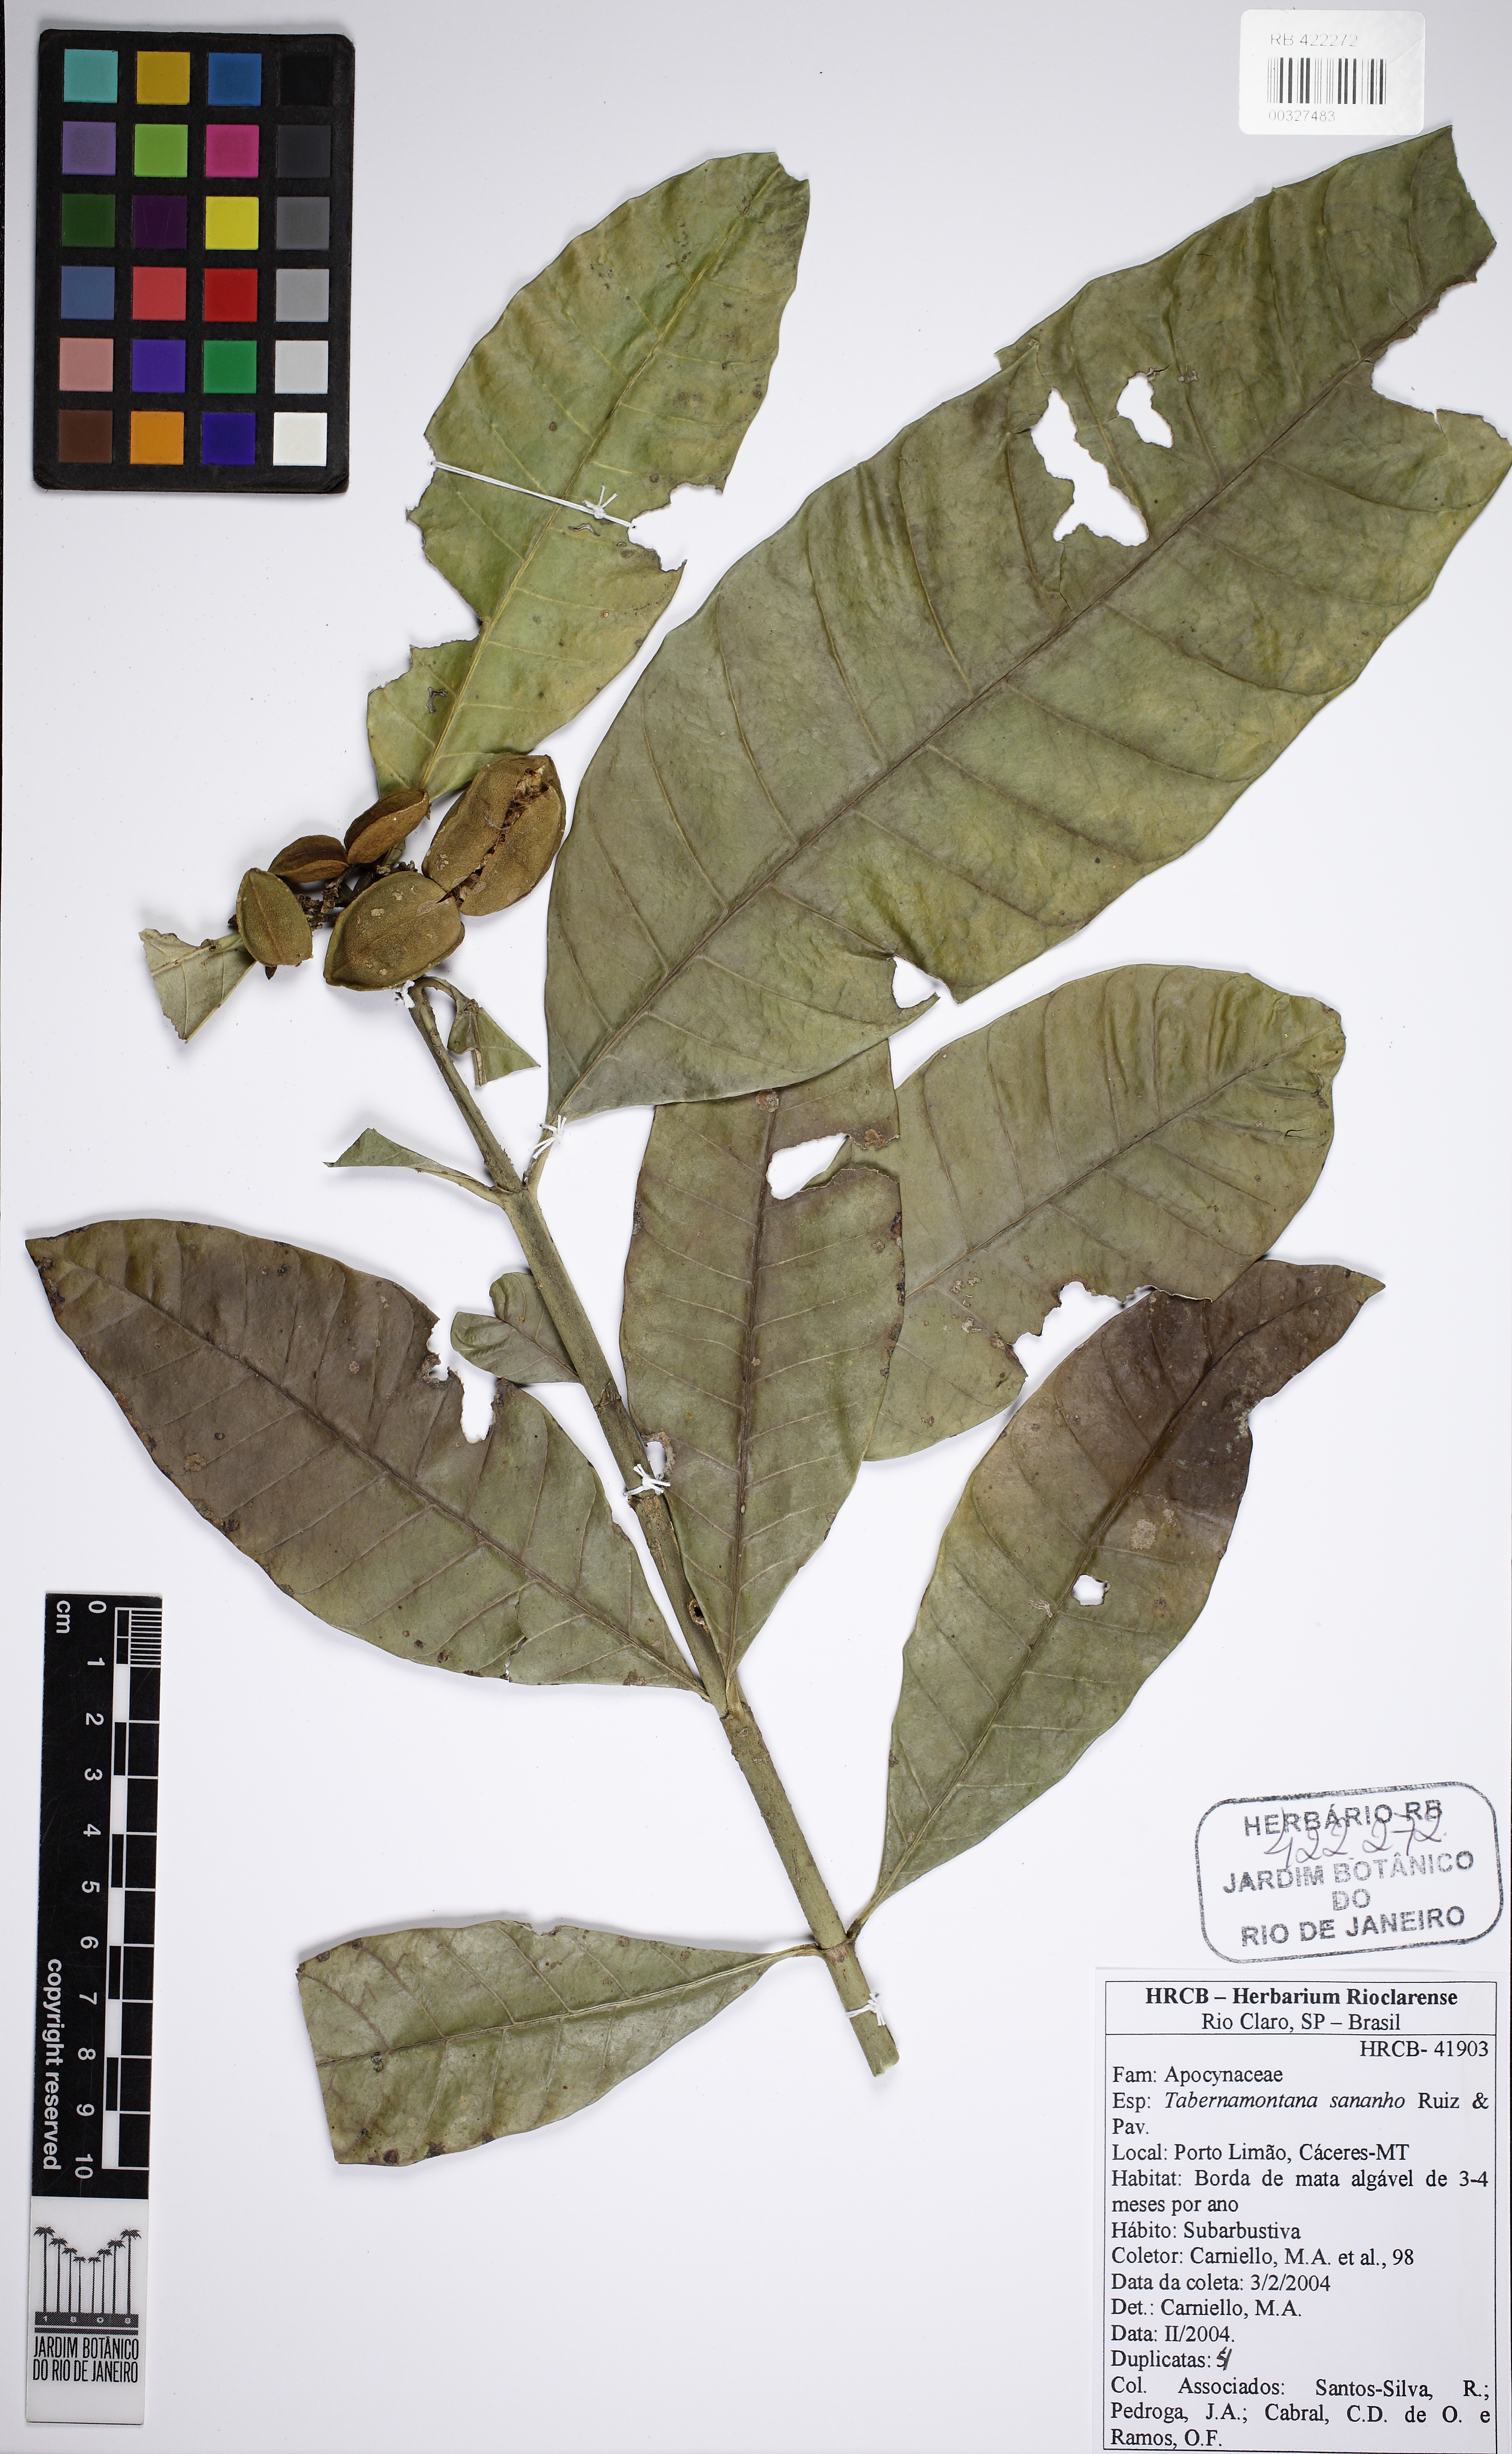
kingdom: Plantae
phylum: Tracheophyta
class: Magnoliopsida
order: Gentianales
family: Apocynaceae
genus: Tabernaemontana
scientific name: Tabernaemontana sananho
